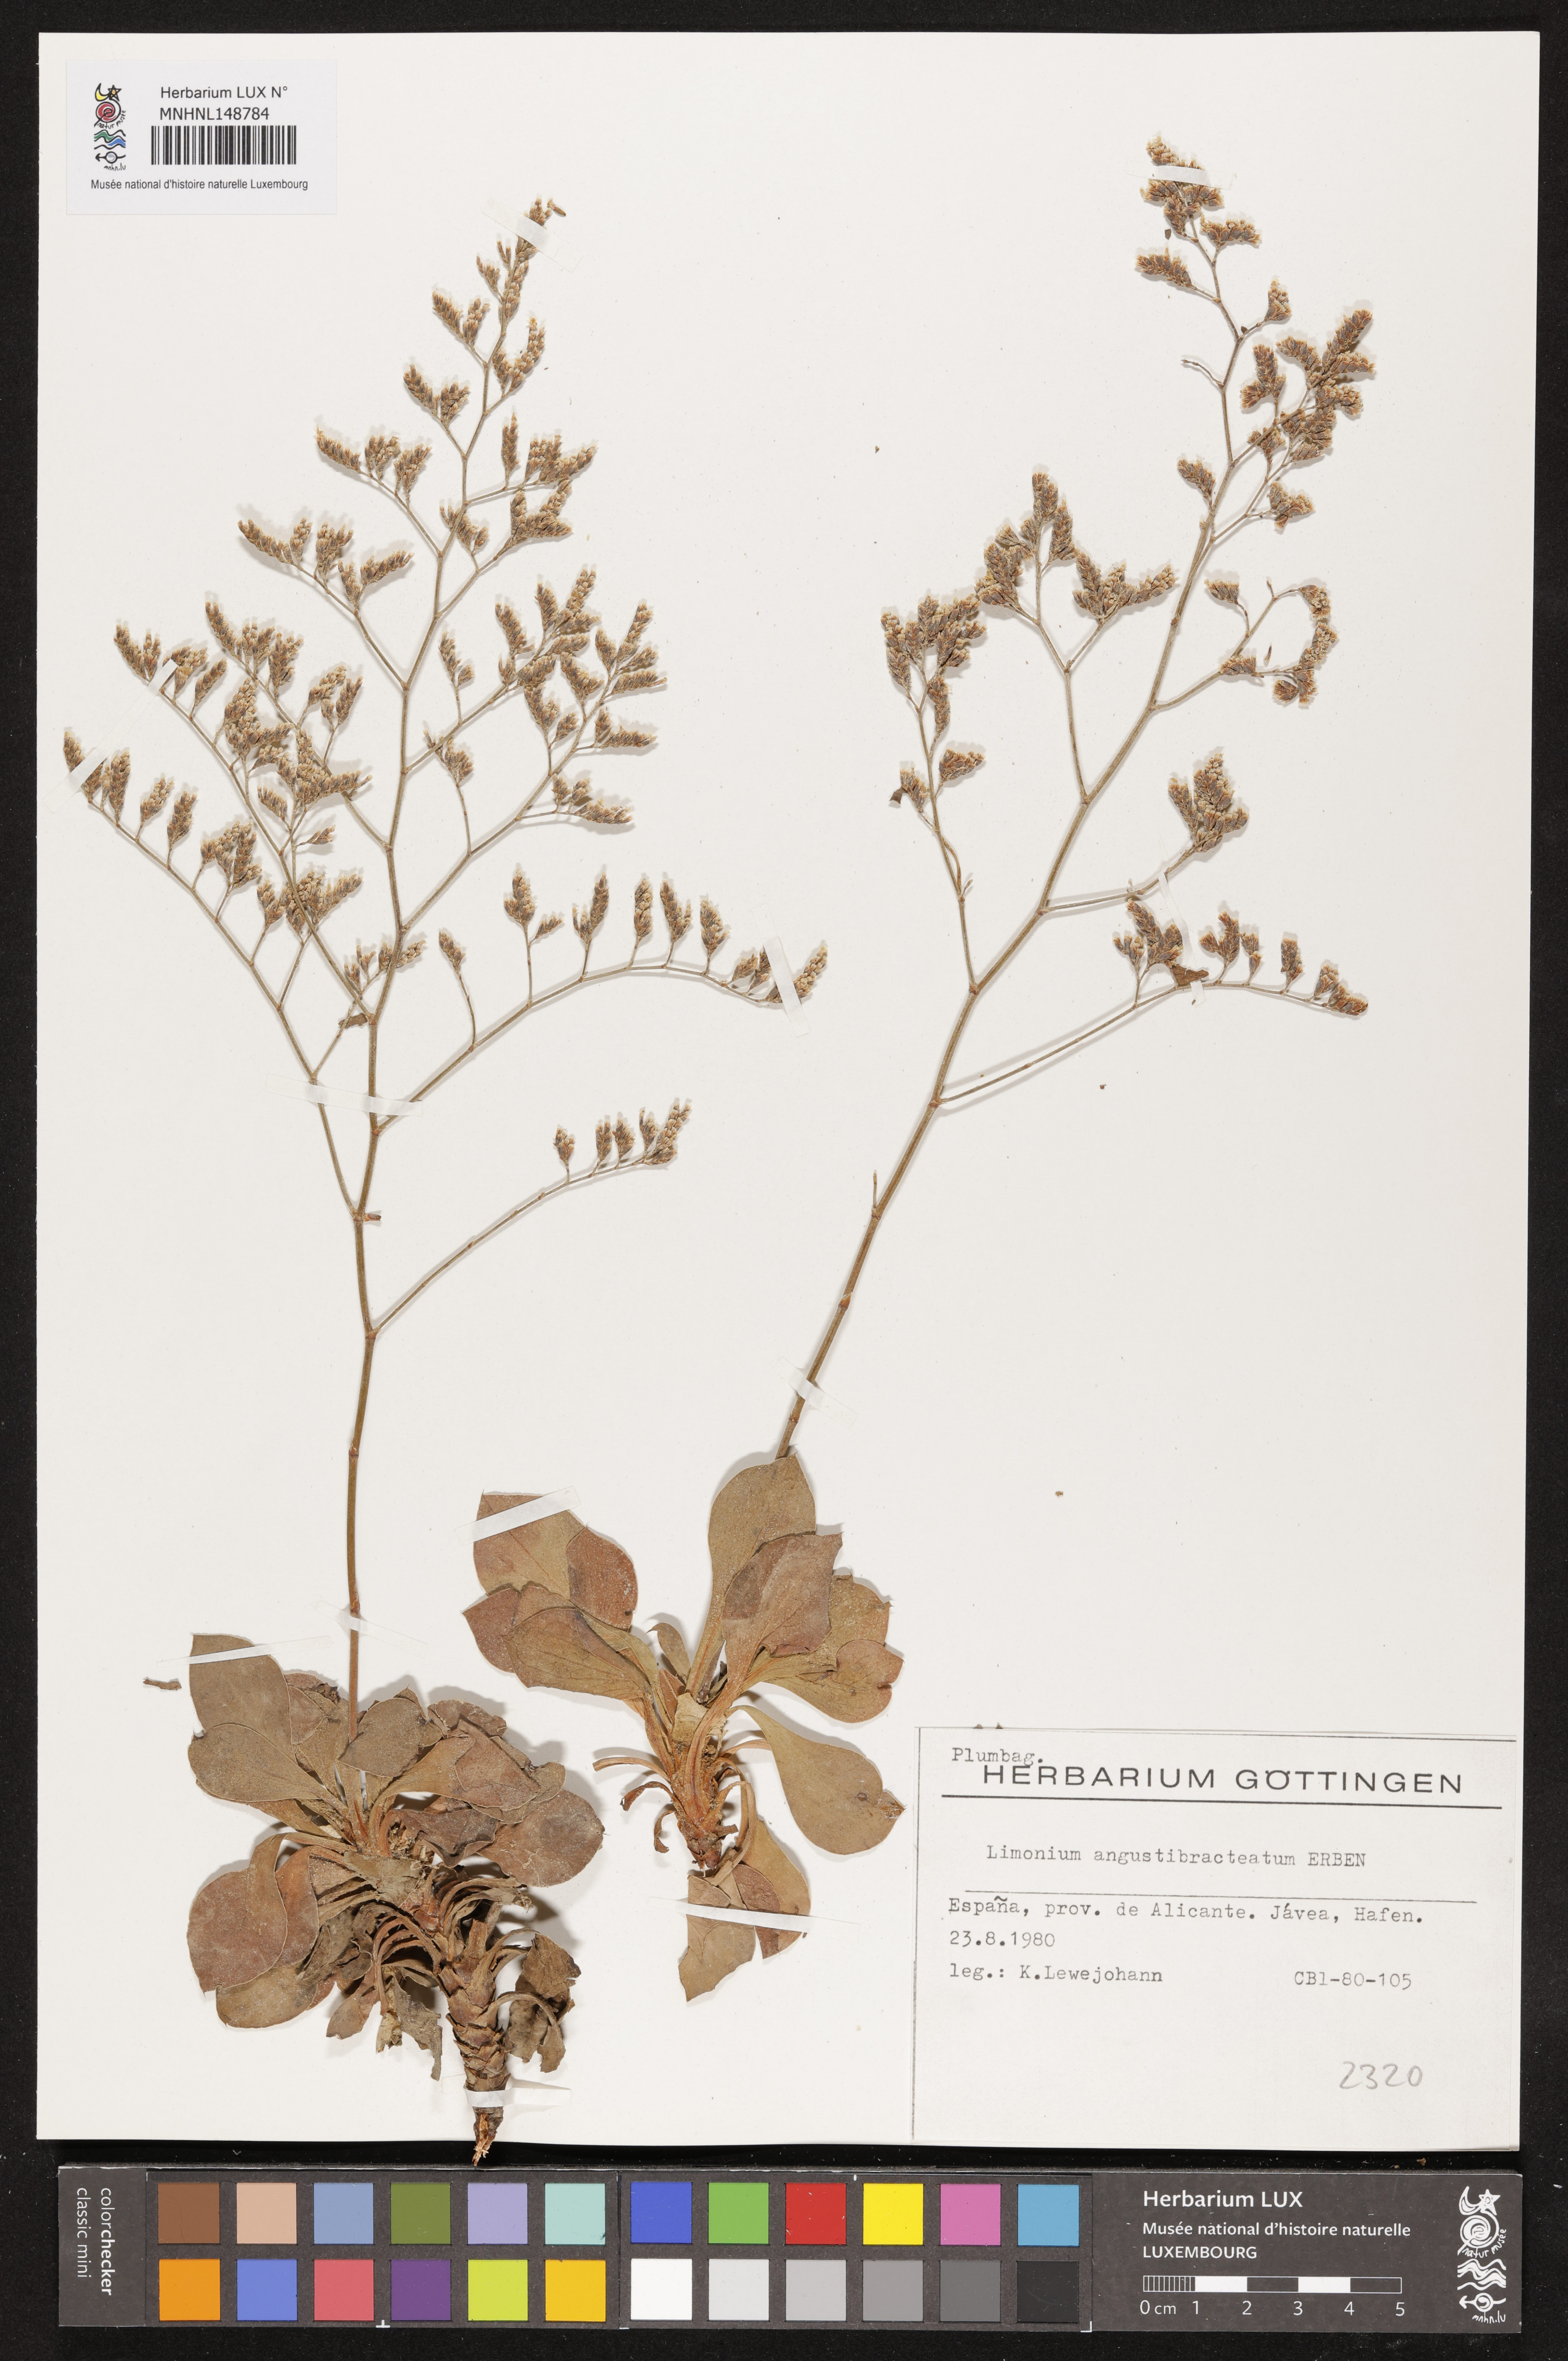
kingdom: Plantae
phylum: Tracheophyta
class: Magnoliopsida
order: Caryophyllales
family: Plumbaginaceae
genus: Limonium
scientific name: Limonium angustebracteatum
